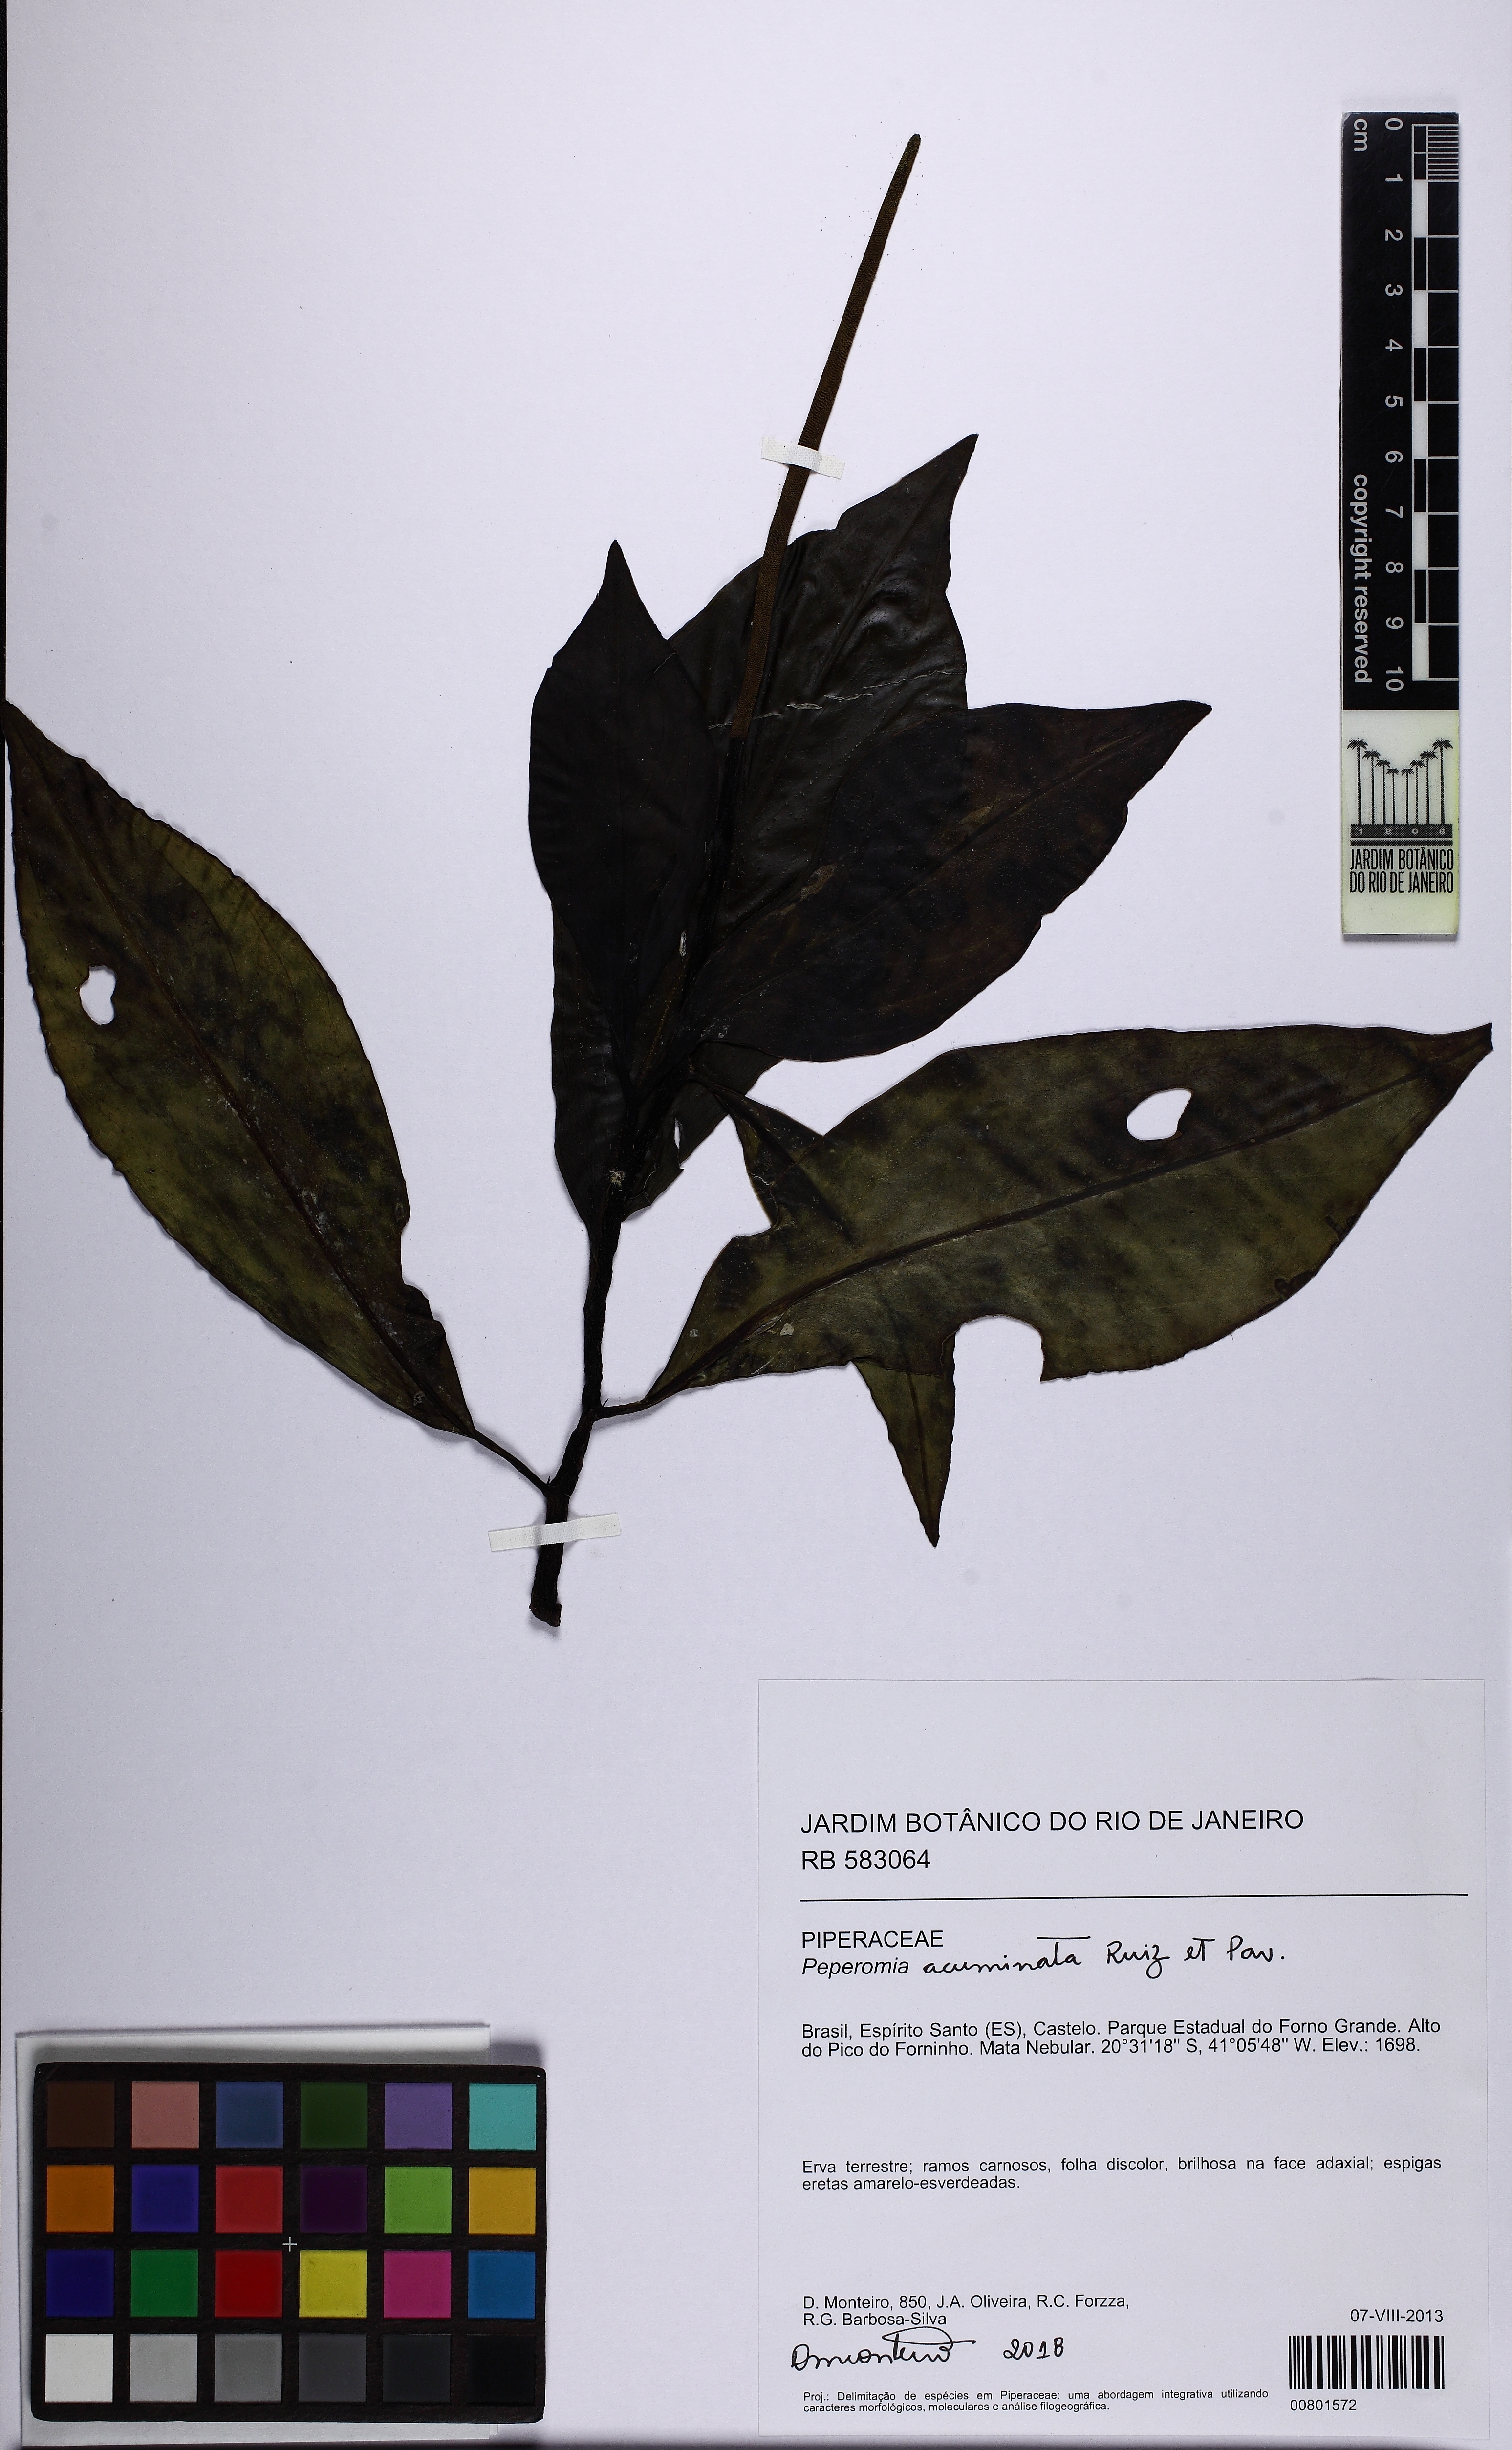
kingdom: Plantae
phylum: Tracheophyta
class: Magnoliopsida
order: Piperales
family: Piperaceae
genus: Peperomia
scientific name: Peperomia acuminata
